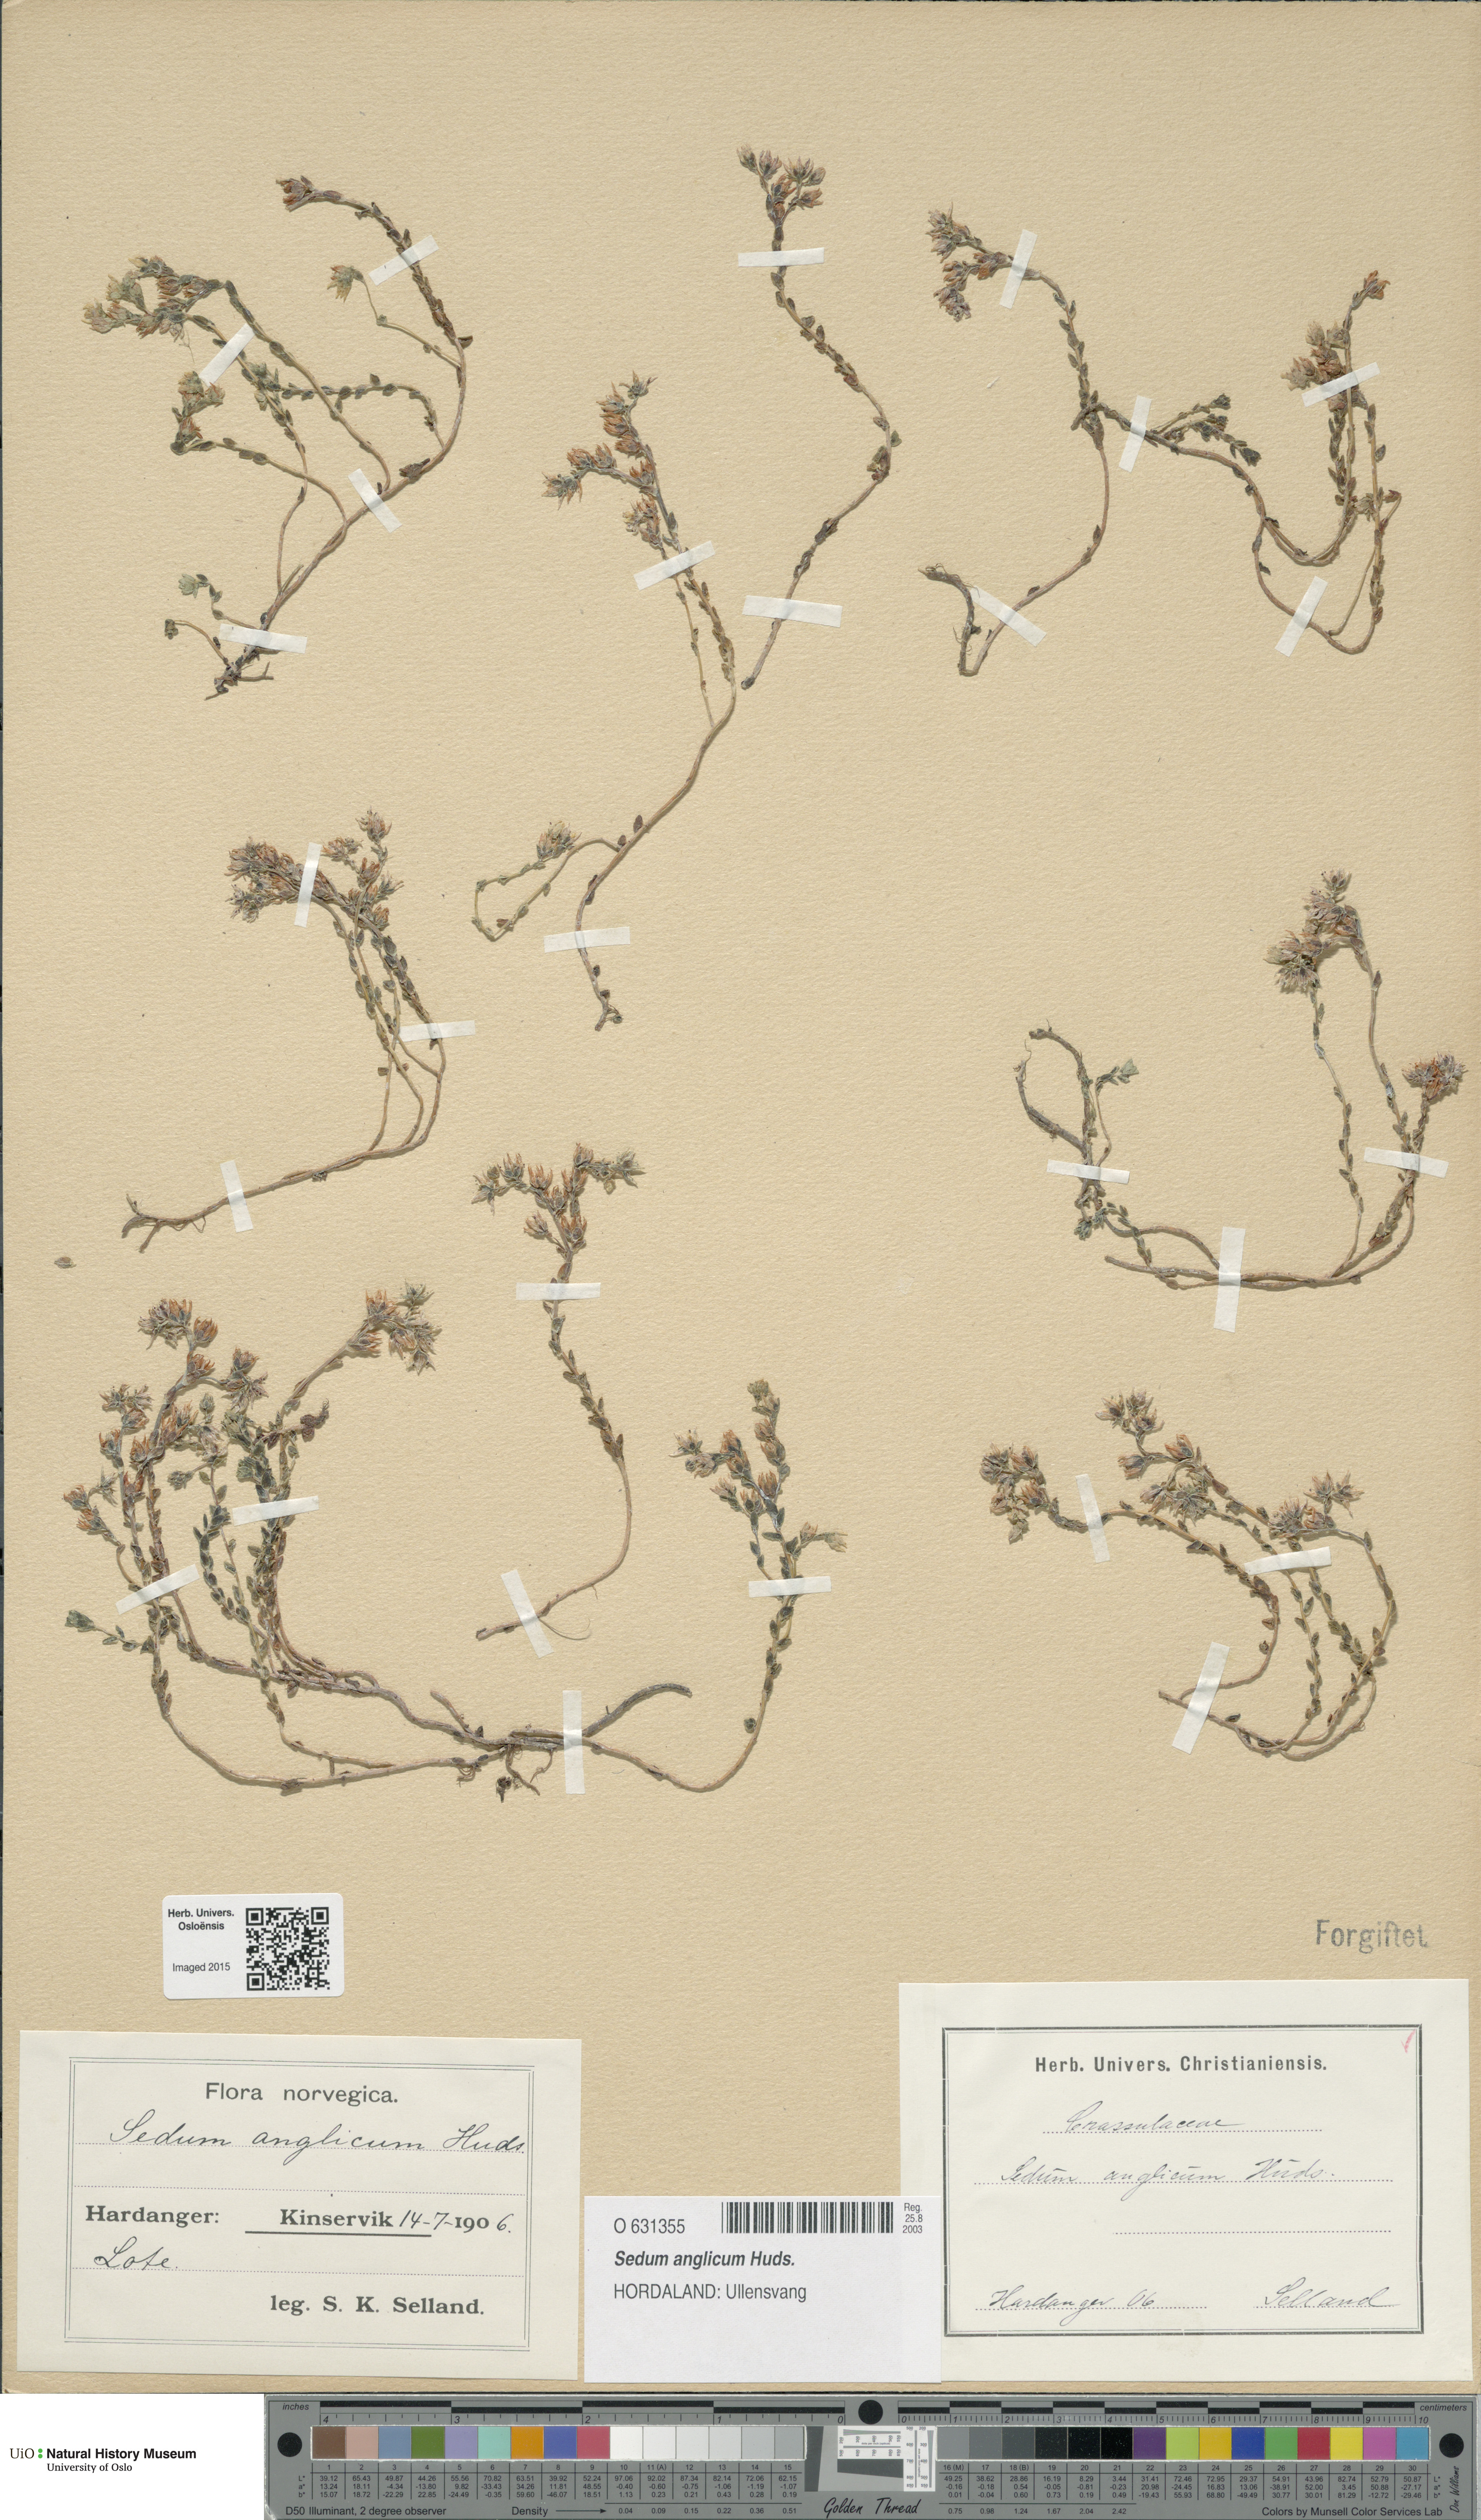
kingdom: Plantae
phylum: Tracheophyta
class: Magnoliopsida
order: Saxifragales
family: Crassulaceae
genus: Sedum
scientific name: Sedum anglicum
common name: English stonecrop
